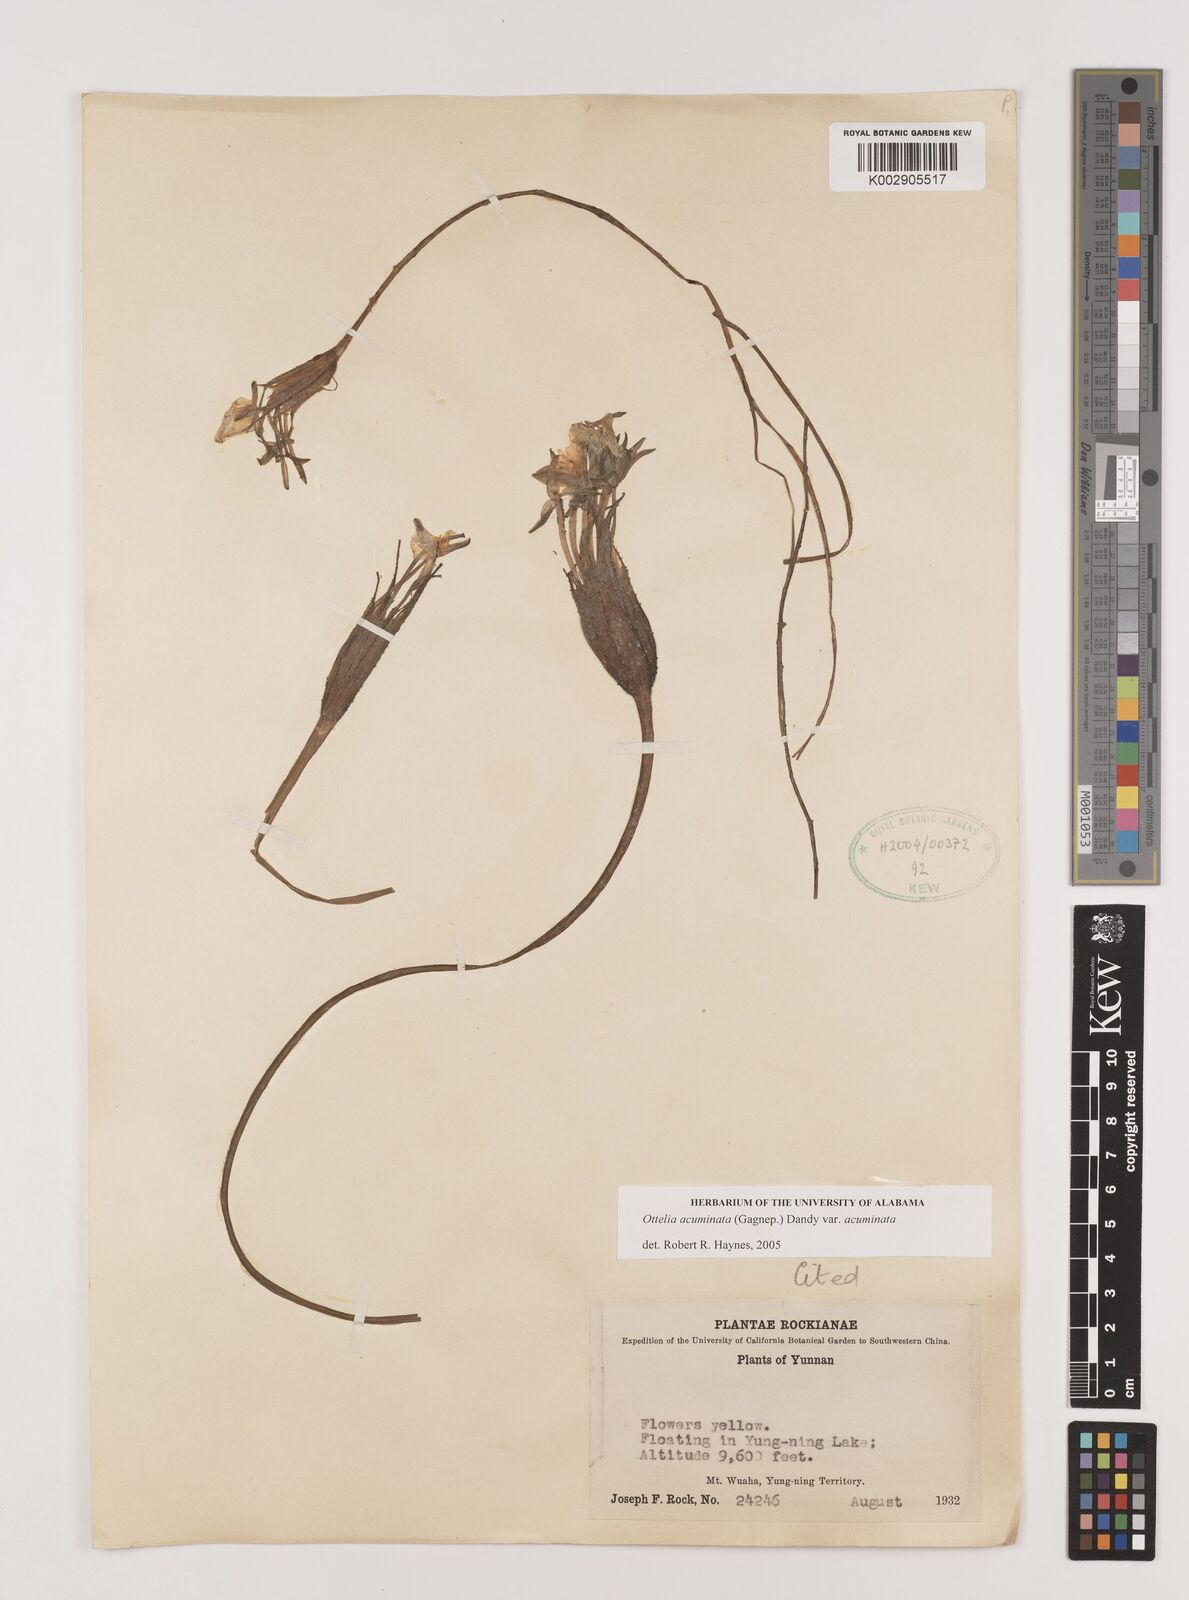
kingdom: Plantae
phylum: Tracheophyta
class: Liliopsida
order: Alismatales
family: Hydrocharitaceae
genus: Ottelia
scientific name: Ottelia acuminata
